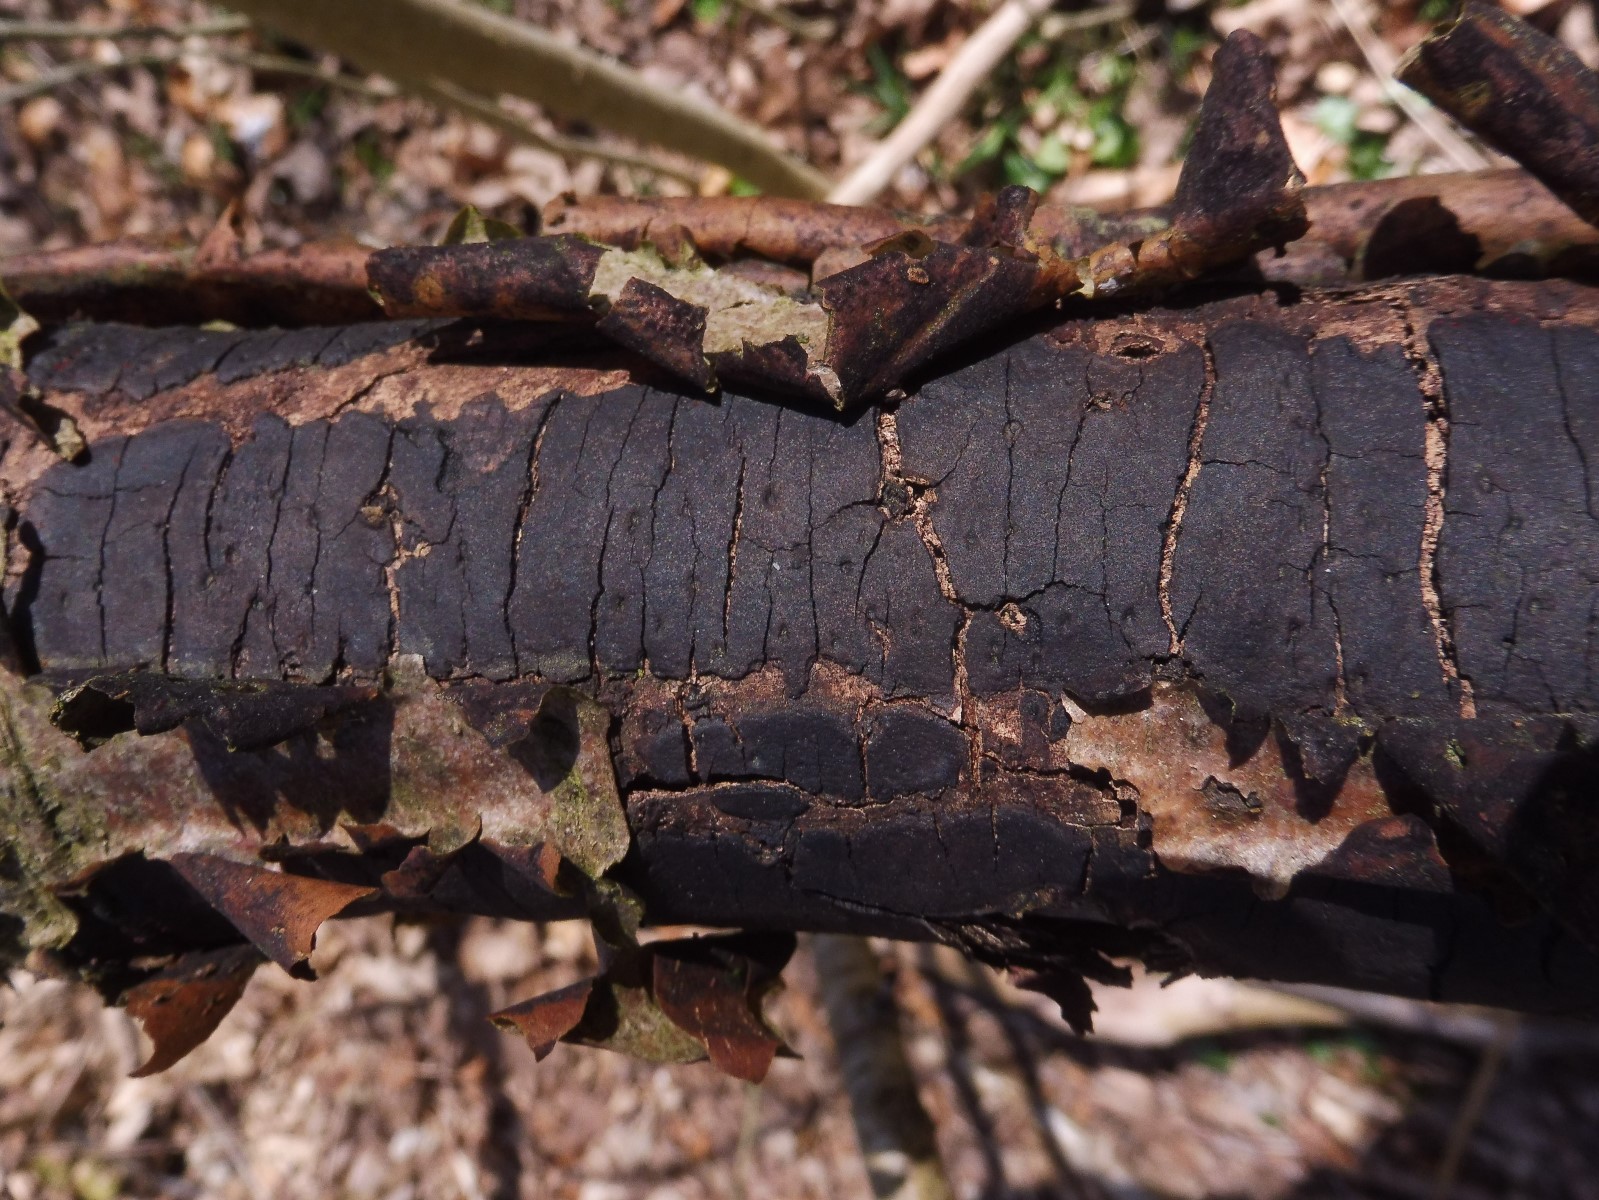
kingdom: Fungi
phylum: Ascomycota
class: Sordariomycetes
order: Xylariales
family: Diatrypaceae
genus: Diatrype
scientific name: Diatrype decorticata
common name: barksprænger-kulskorpe
